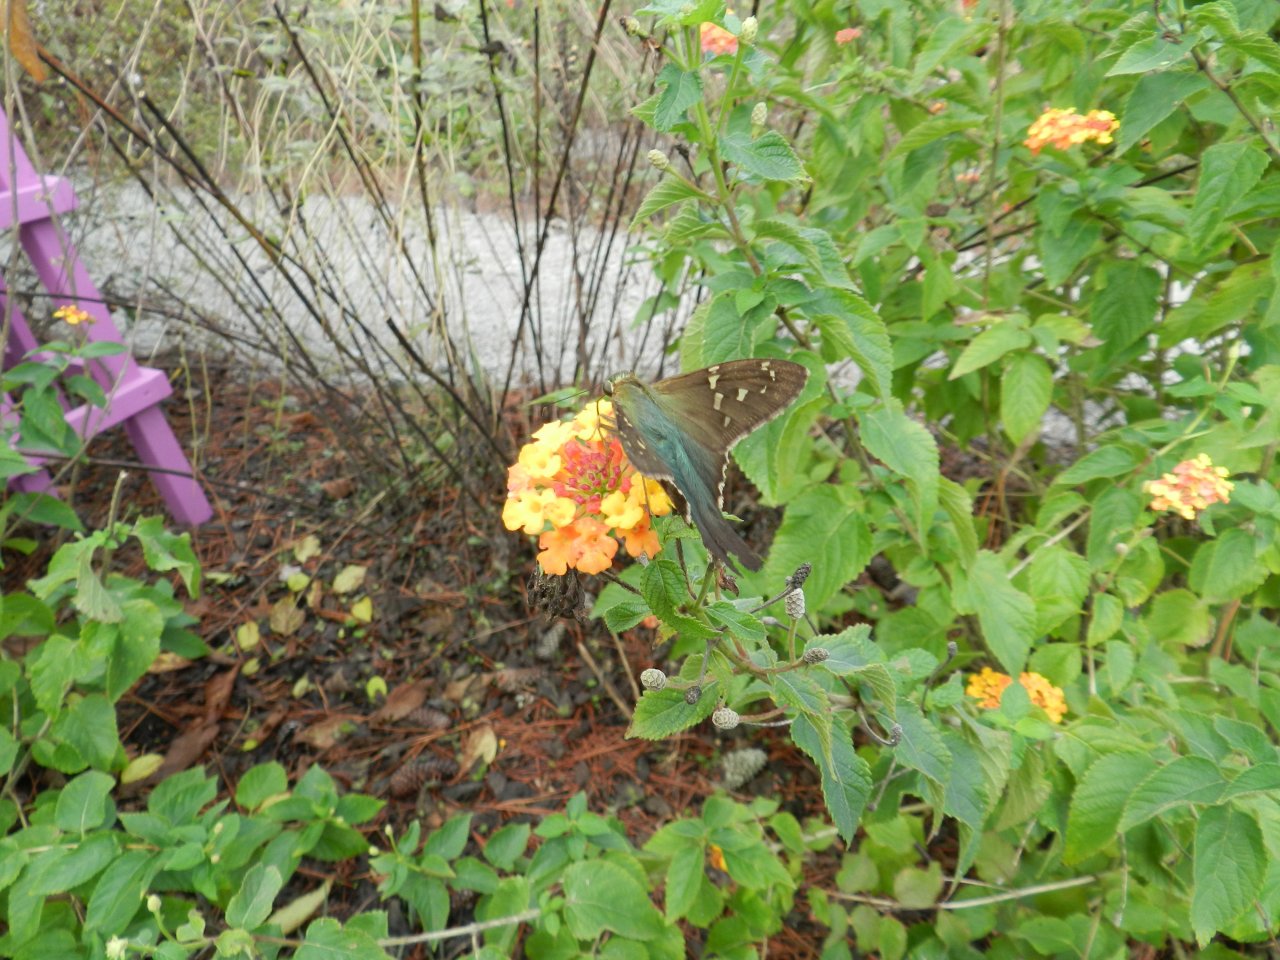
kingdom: Animalia
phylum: Arthropoda
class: Insecta
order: Lepidoptera
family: Hesperiidae
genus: Urbanus
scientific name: Urbanus proteus
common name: Long-tailed Skipper
